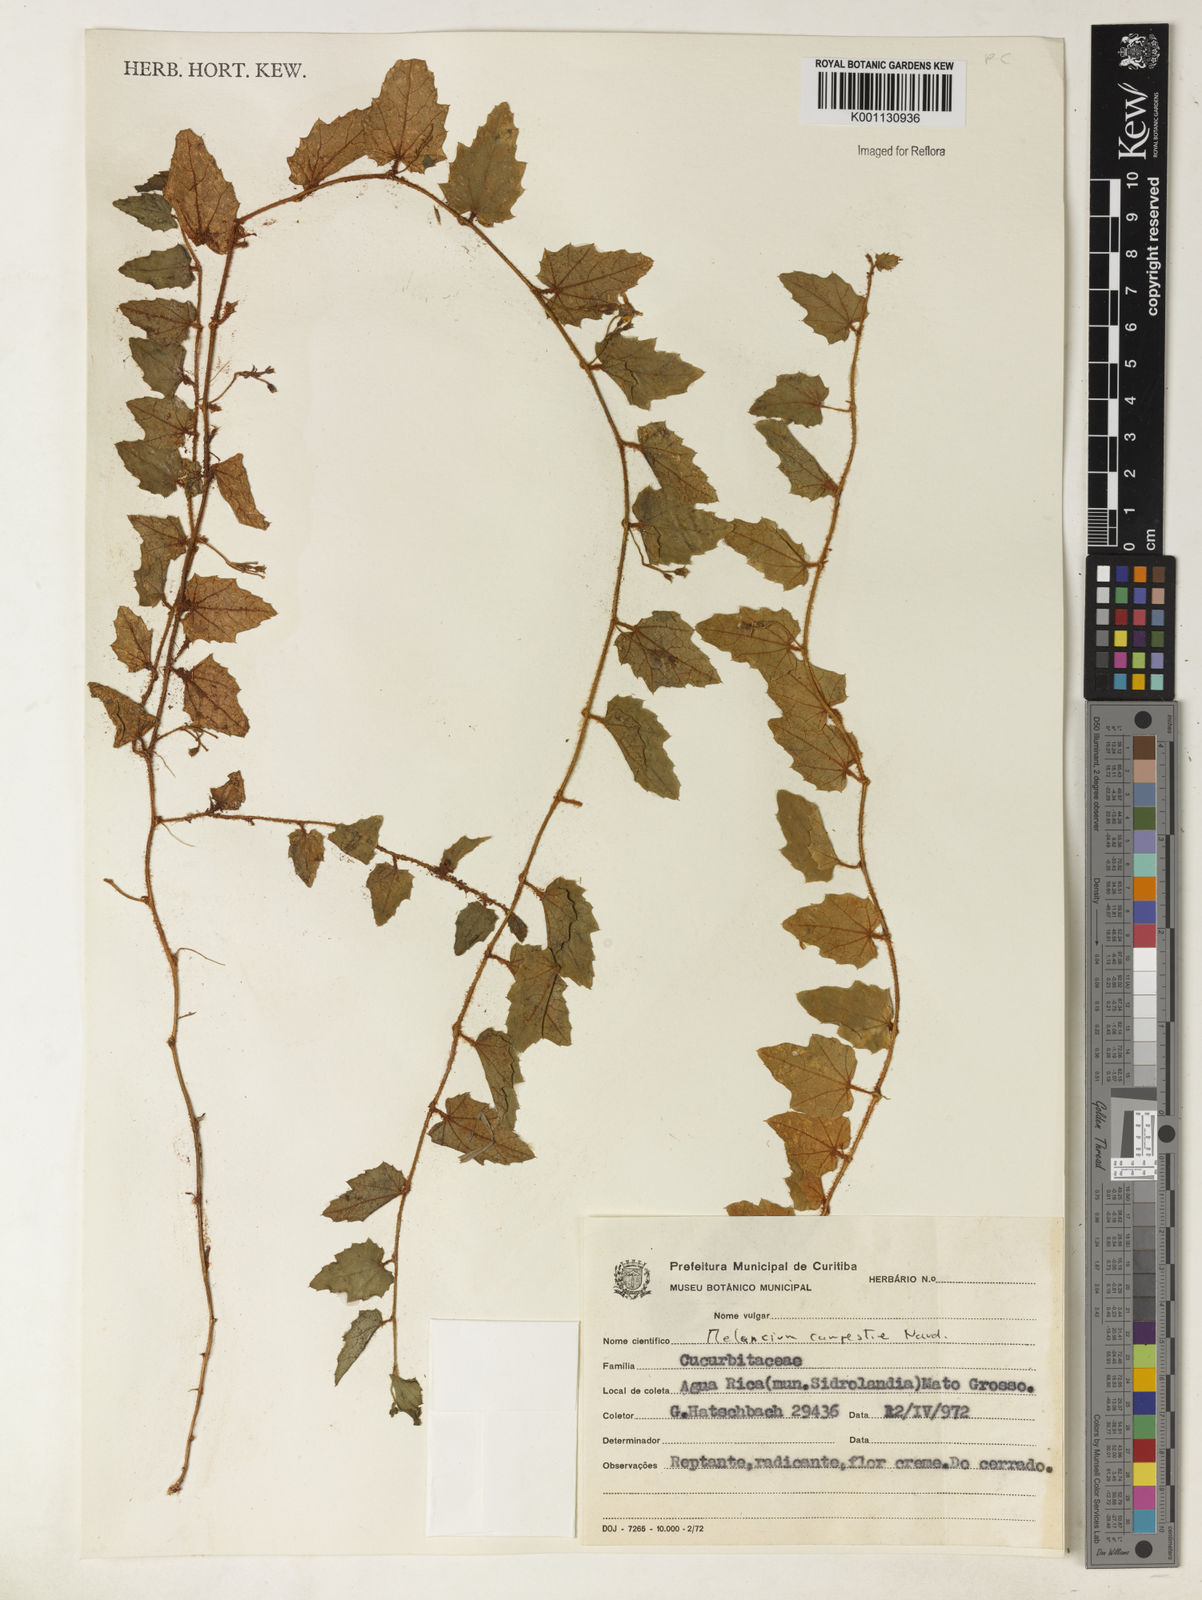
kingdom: Plantae
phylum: Tracheophyta
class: Magnoliopsida
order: Cucurbitales
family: Cucurbitaceae
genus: Melothria
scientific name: Melothria campestris
